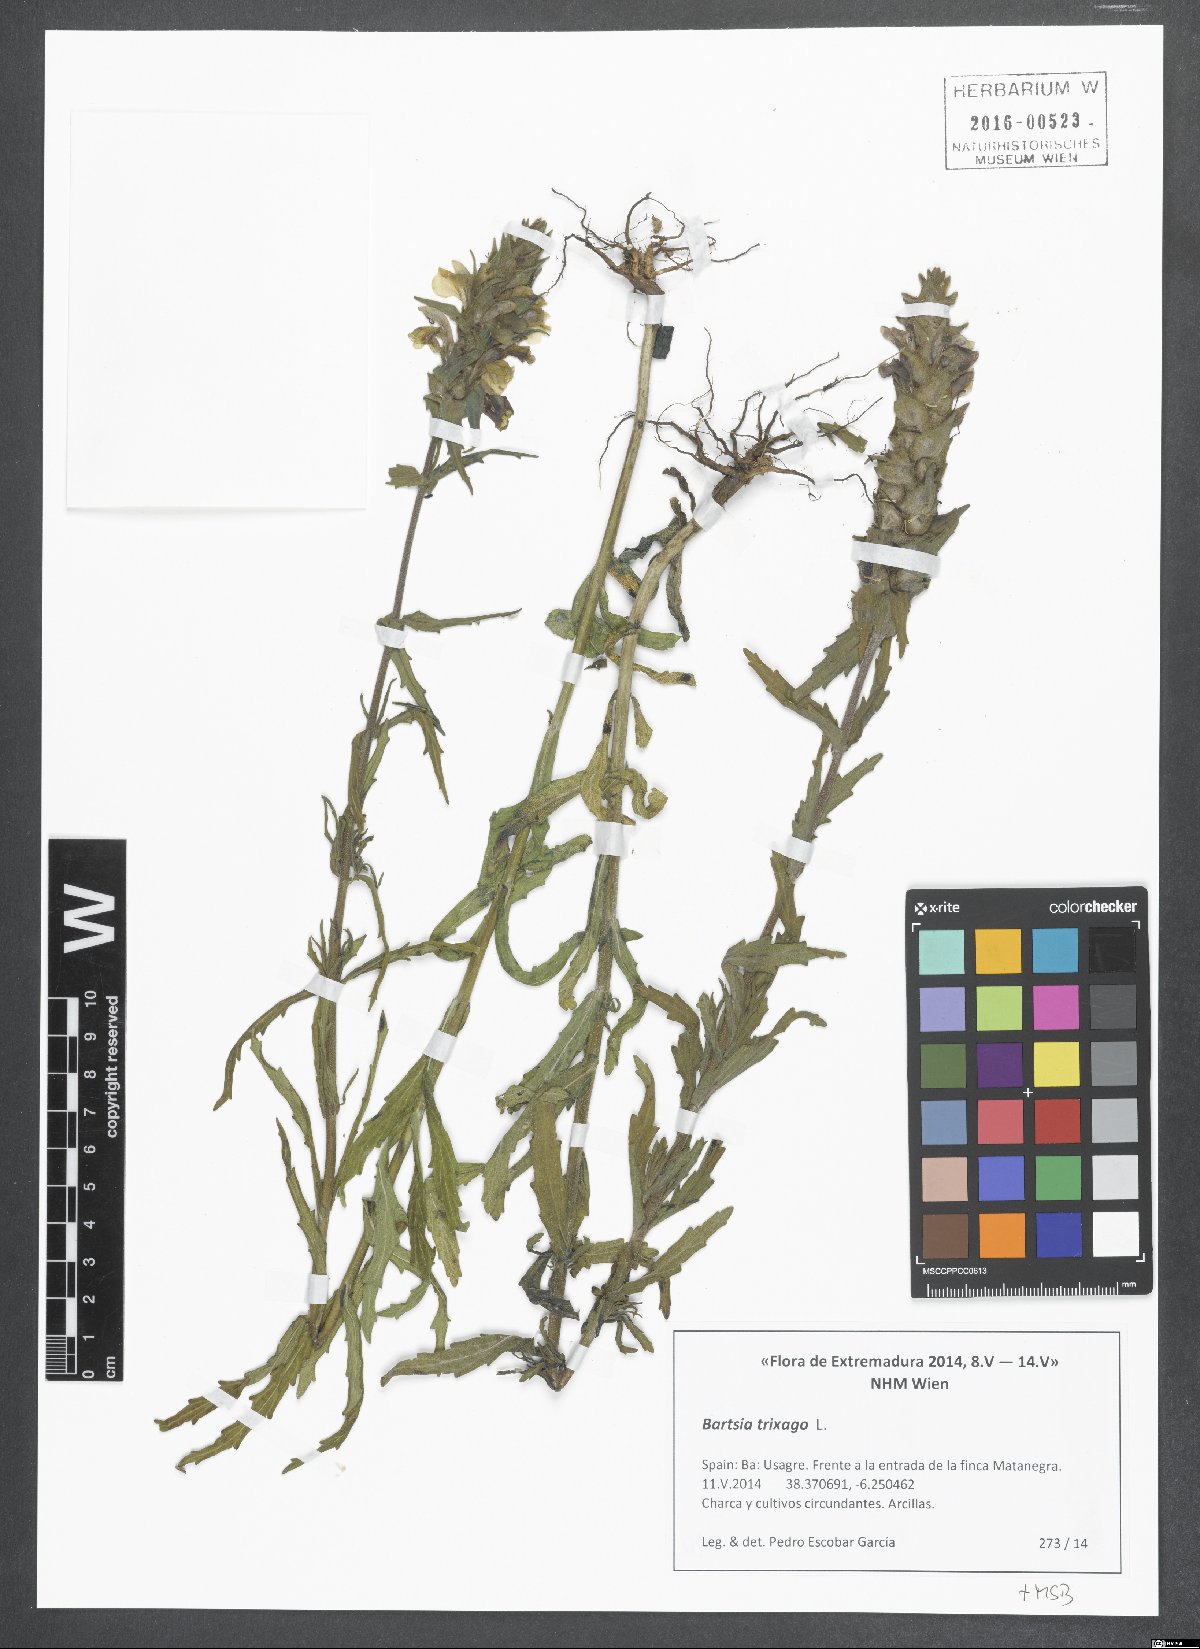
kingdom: Plantae
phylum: Tracheophyta
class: Magnoliopsida
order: Lamiales
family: Orobanchaceae
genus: Bellardia
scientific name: Bellardia trixago
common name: Mediterranean lineseed
